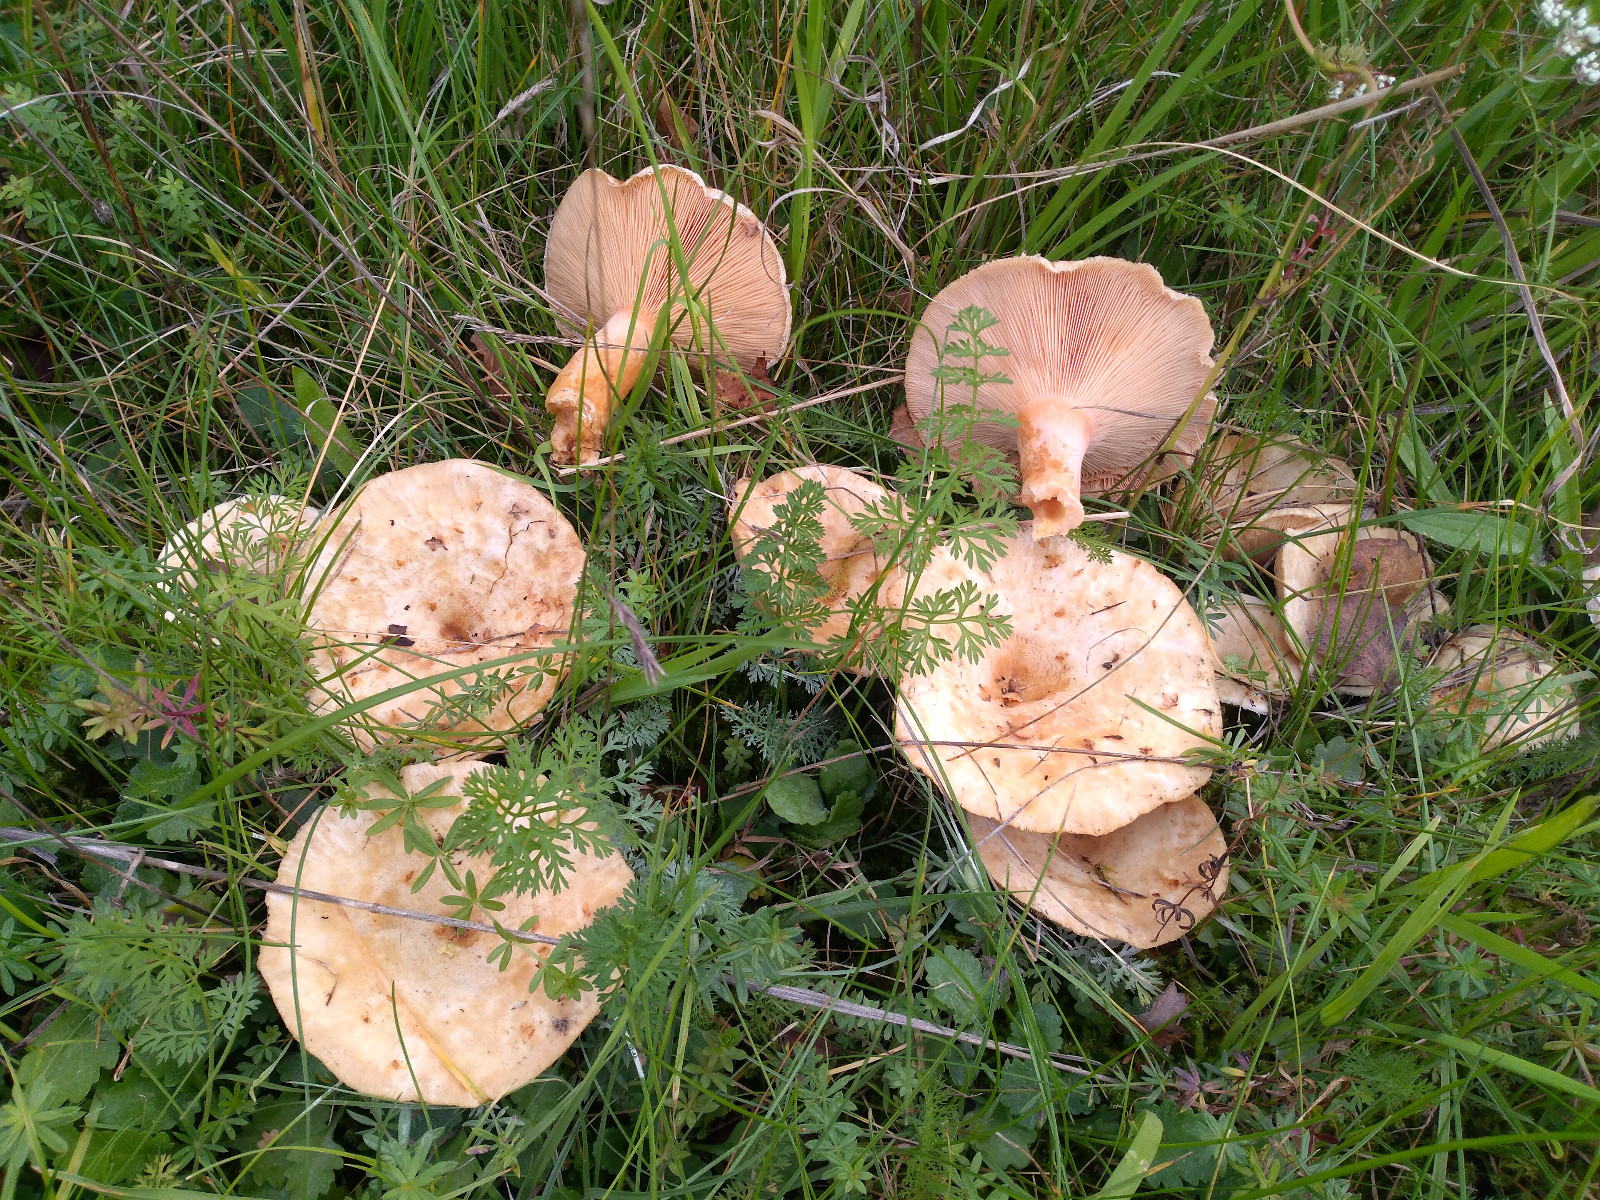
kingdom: Fungi
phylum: Basidiomycota
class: Agaricomycetes
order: Russulales
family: Russulaceae
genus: Lactarius
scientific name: Lactarius controversus
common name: rosabladet mælkehat
